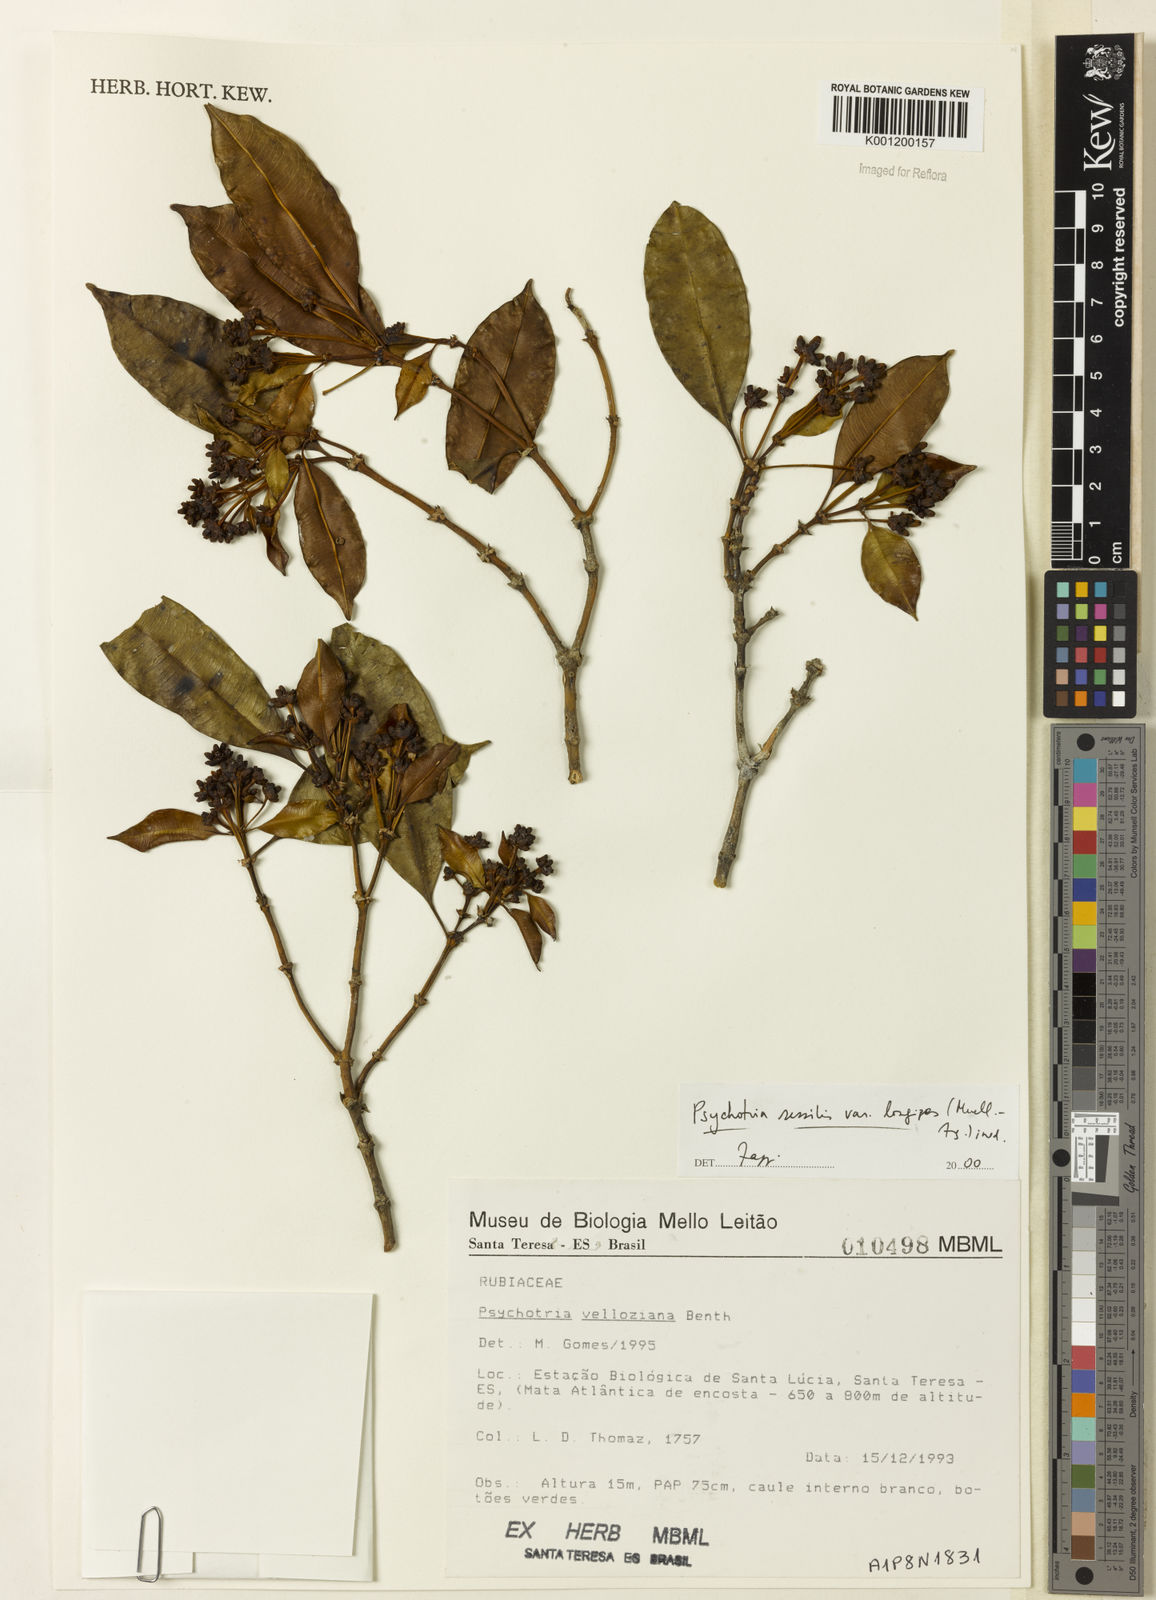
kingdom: Plantae
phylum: Tracheophyta
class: Magnoliopsida
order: Gentianales
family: Rubiaceae
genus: Rudgea
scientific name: Rudgea sessilis
